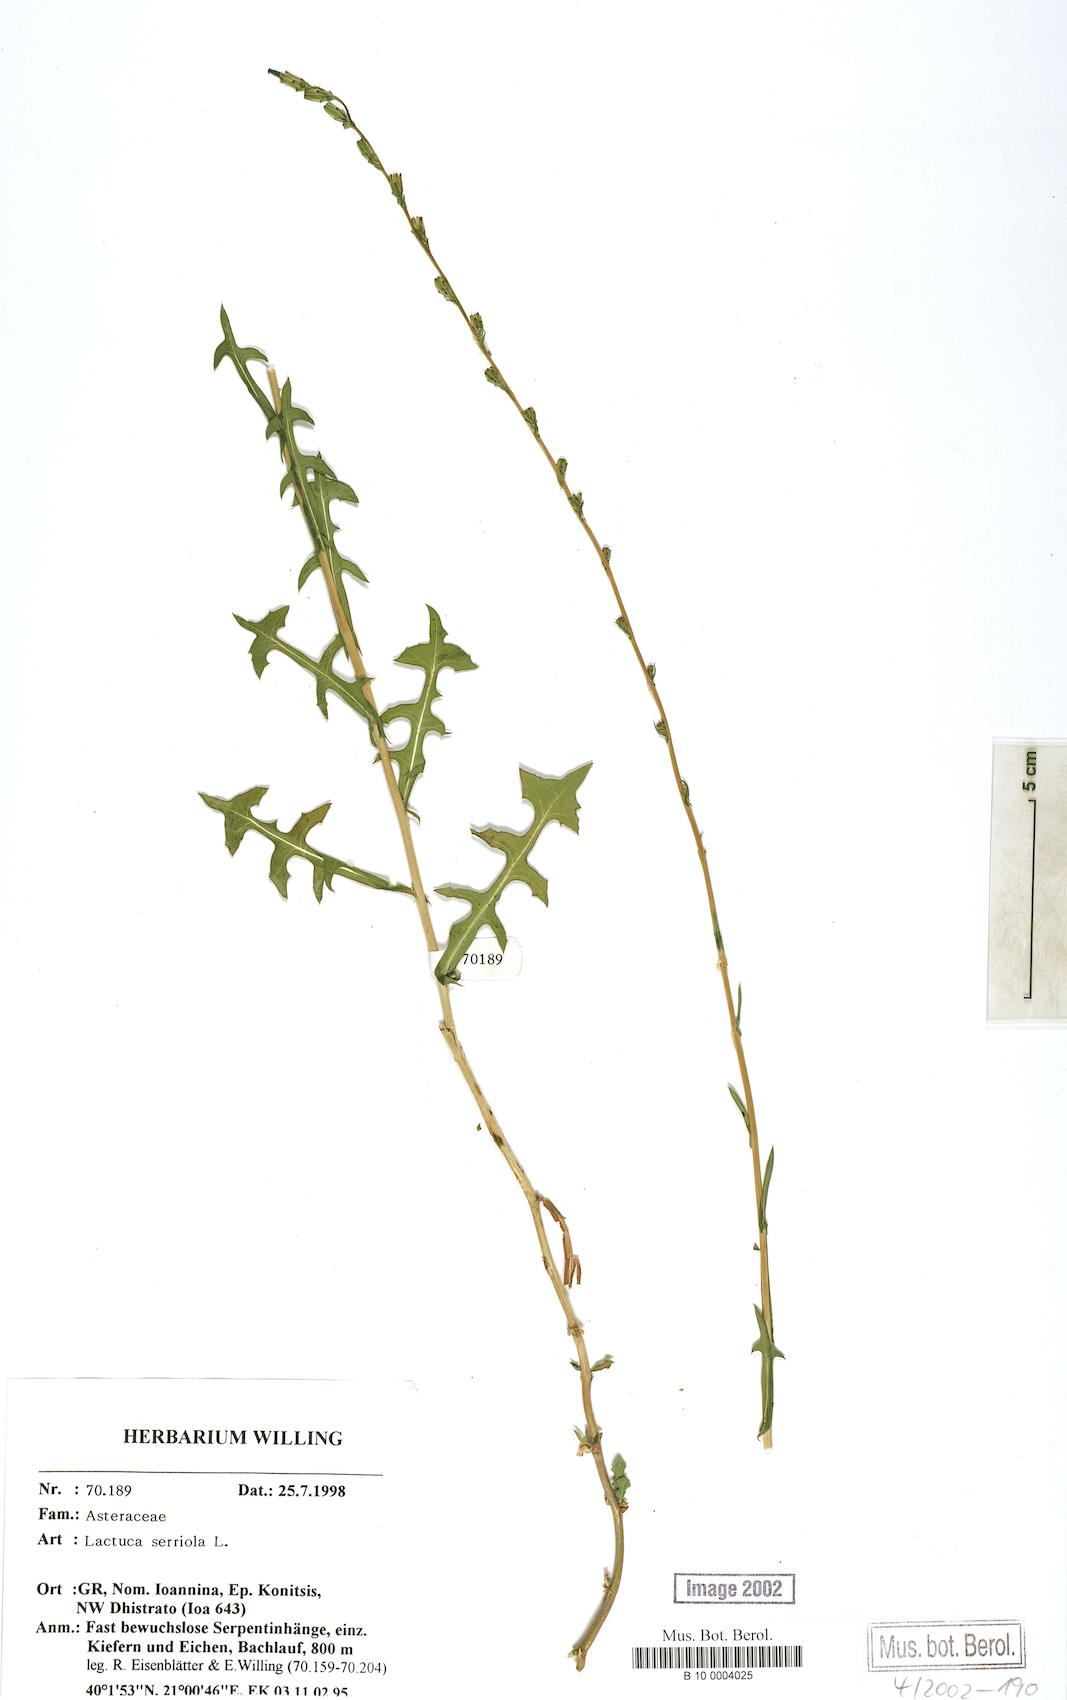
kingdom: Plantae
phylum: Tracheophyta
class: Magnoliopsida
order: Asterales
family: Asteraceae
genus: Lactuca
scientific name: Lactuca serriola
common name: Prickly lettuce
